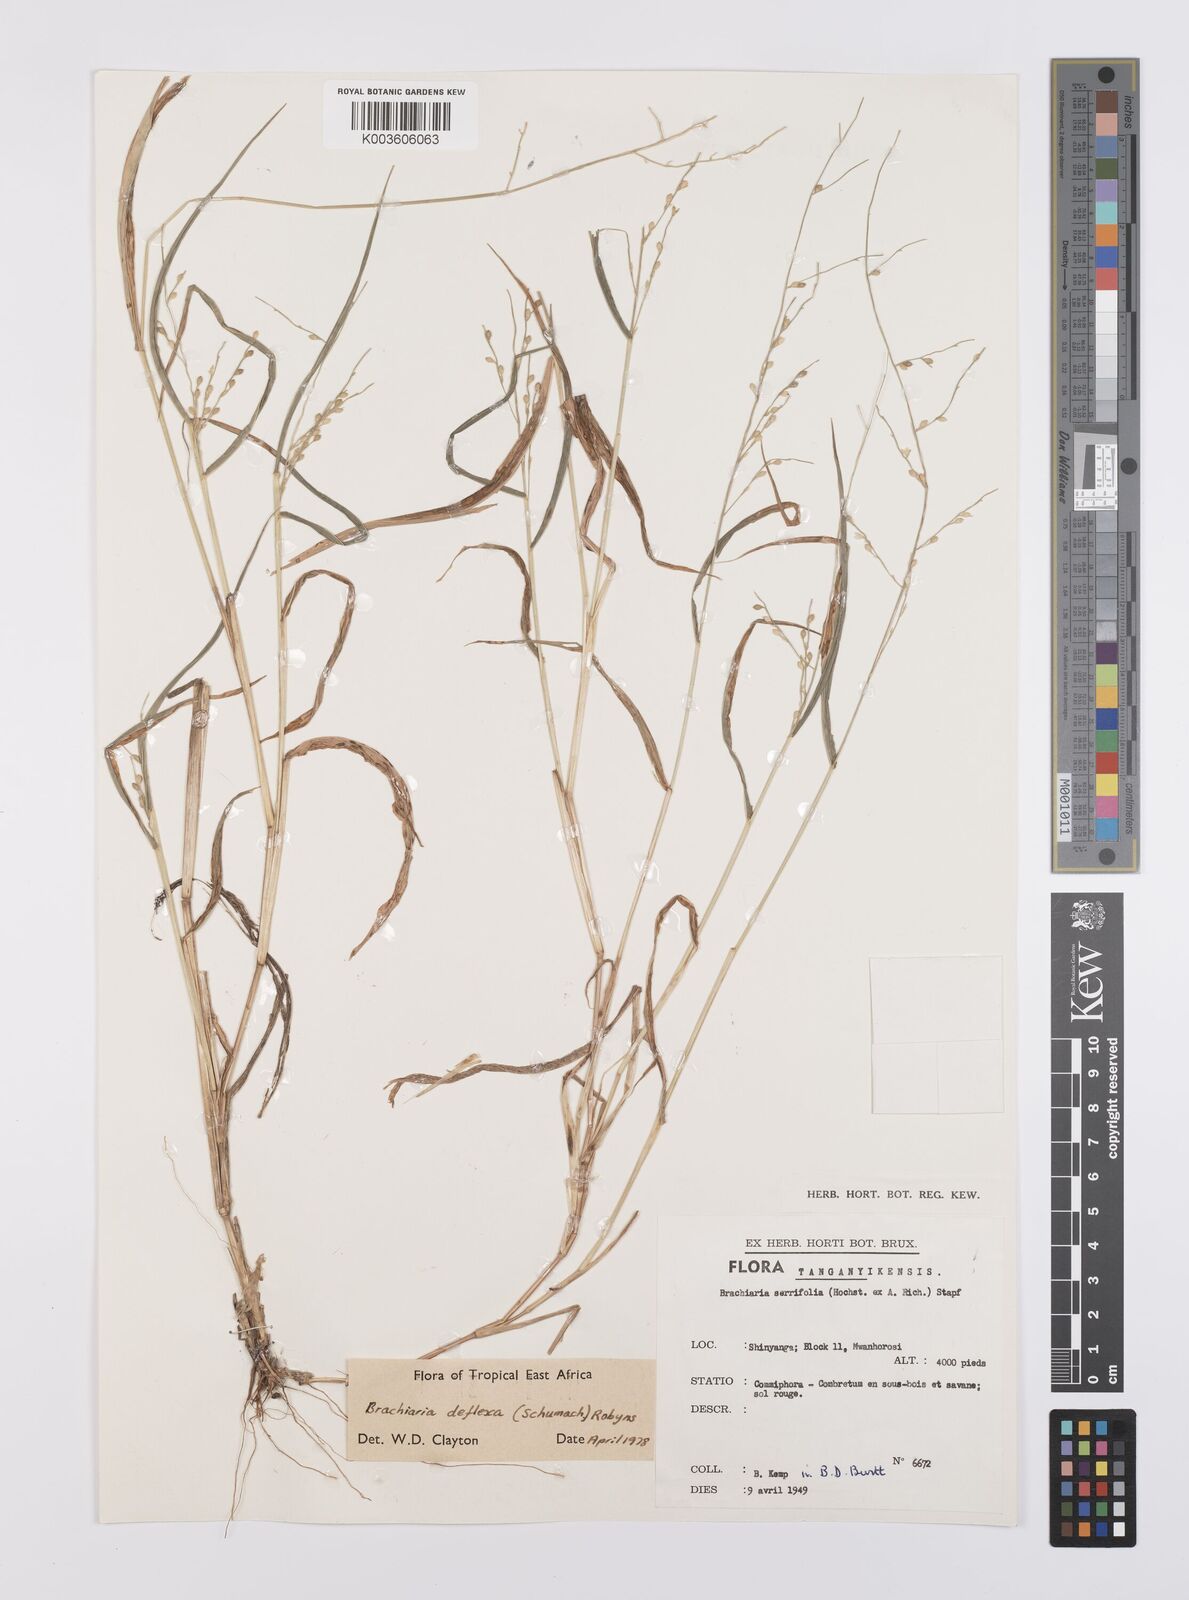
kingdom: Plantae
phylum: Tracheophyta
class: Liliopsida
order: Poales
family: Poaceae
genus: Urochloa
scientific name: Urochloa deflexa
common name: Guinea millet
